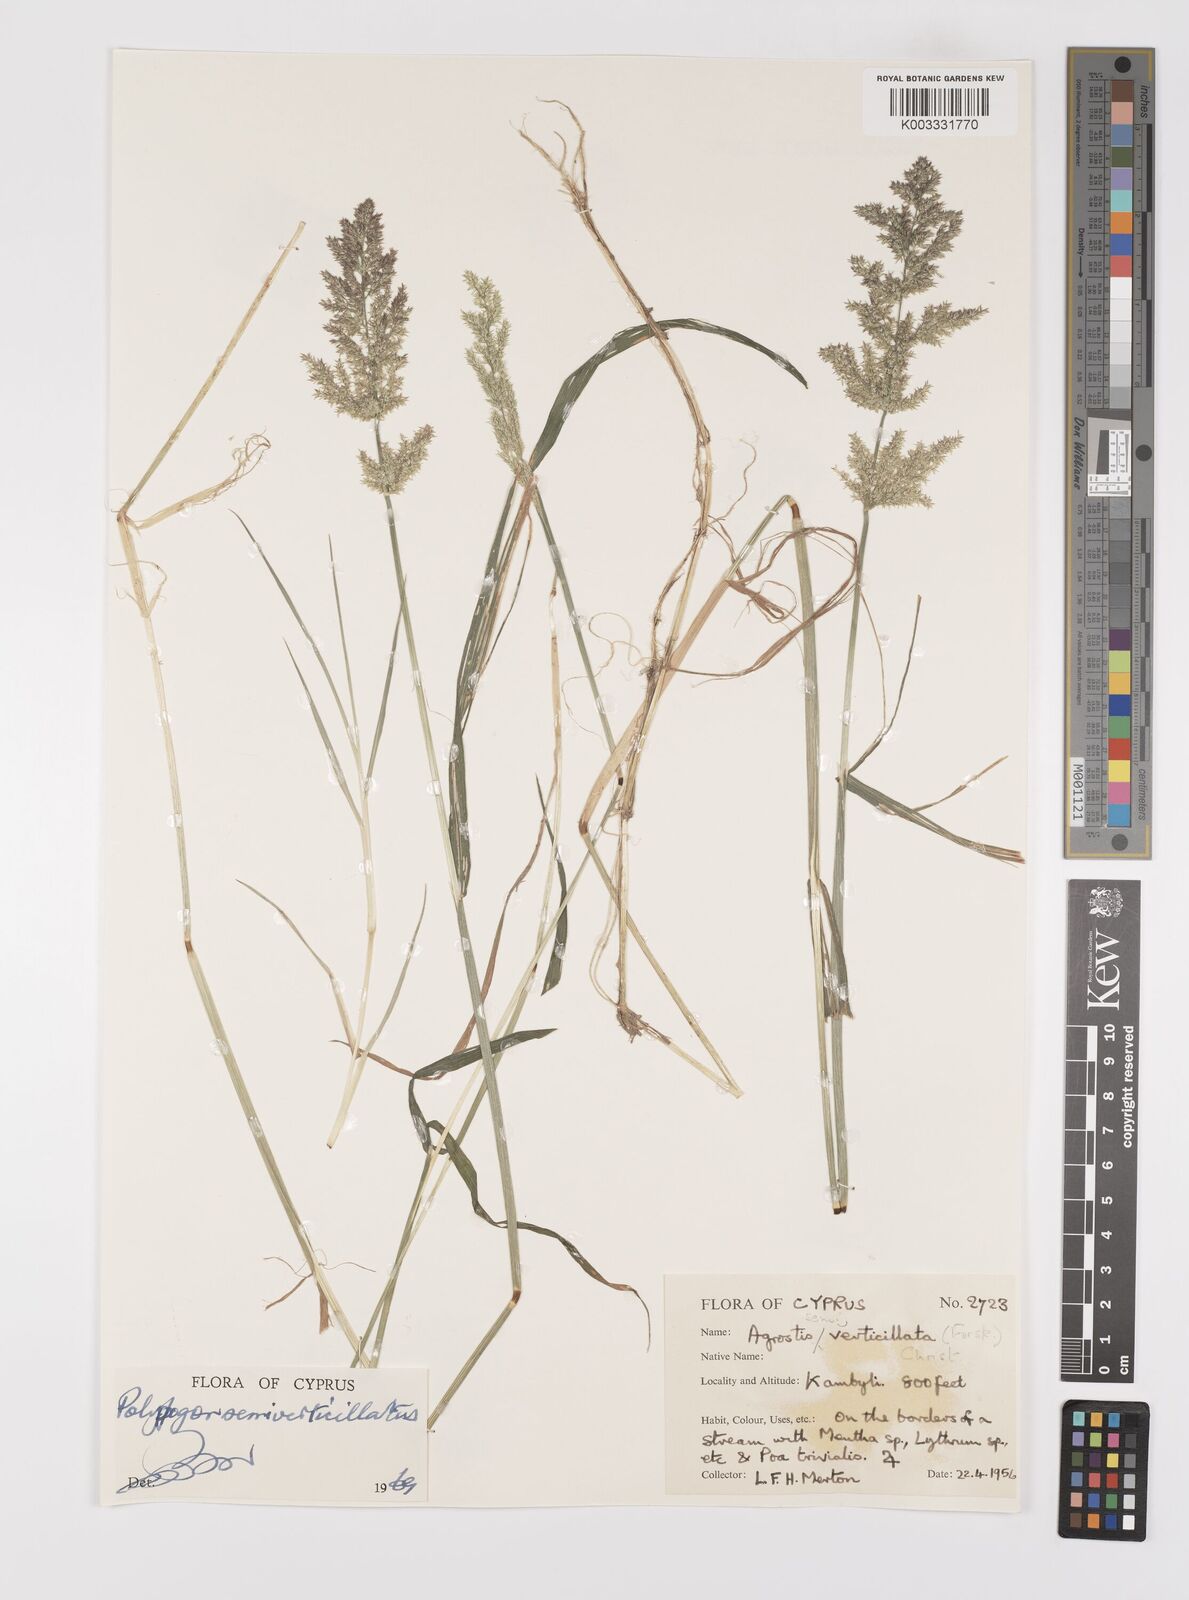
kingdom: Plantae
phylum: Tracheophyta
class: Liliopsida
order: Poales
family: Poaceae
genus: Polypogon
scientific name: Polypogon viridis
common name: Water bent
